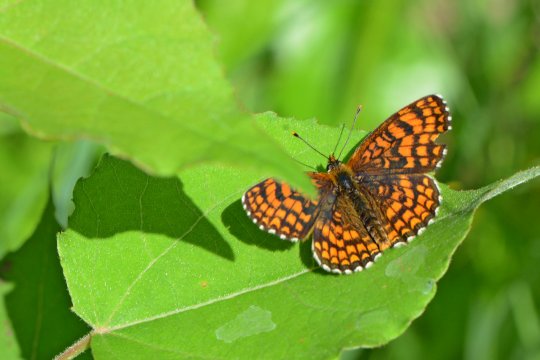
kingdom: Animalia
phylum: Arthropoda
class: Insecta
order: Lepidoptera
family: Nymphalidae
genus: Melitaea
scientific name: Melitaea athalia
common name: Heath Fritillary
